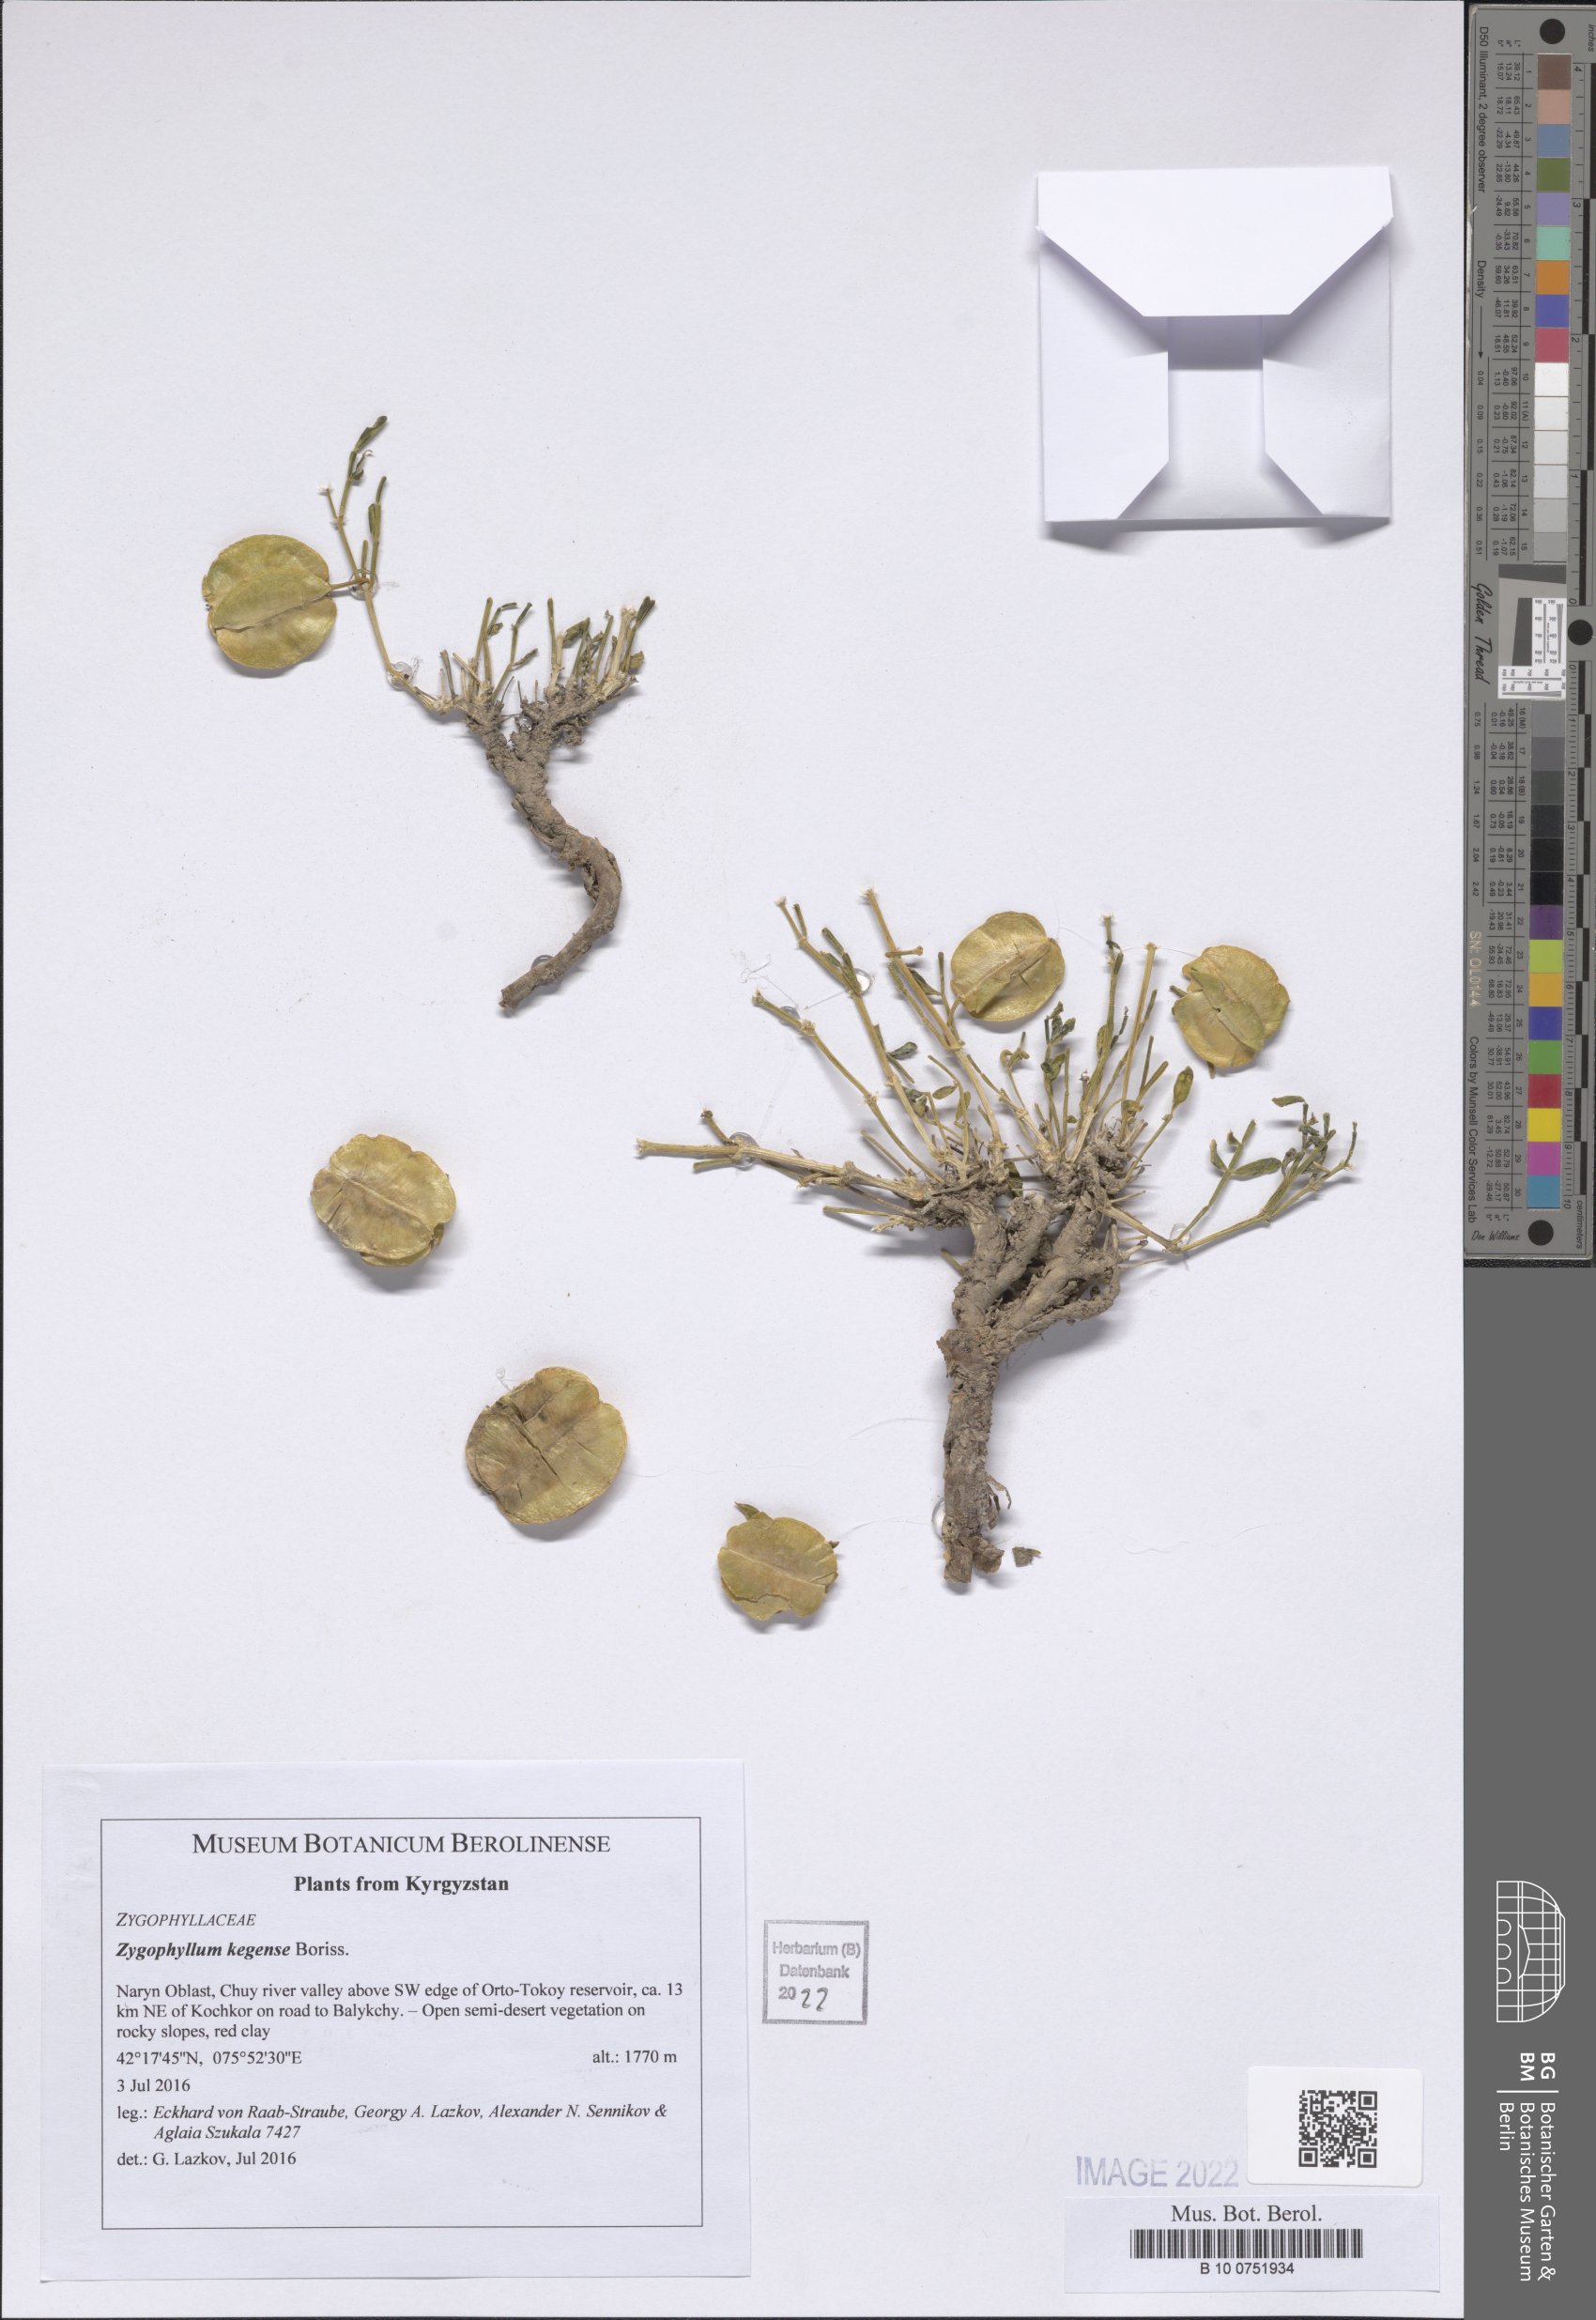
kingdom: Plantae
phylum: Tracheophyta
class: Magnoliopsida
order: Zygophyllales
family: Zygophyllaceae
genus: Zygophyllum
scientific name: Zygophyllum kegense
